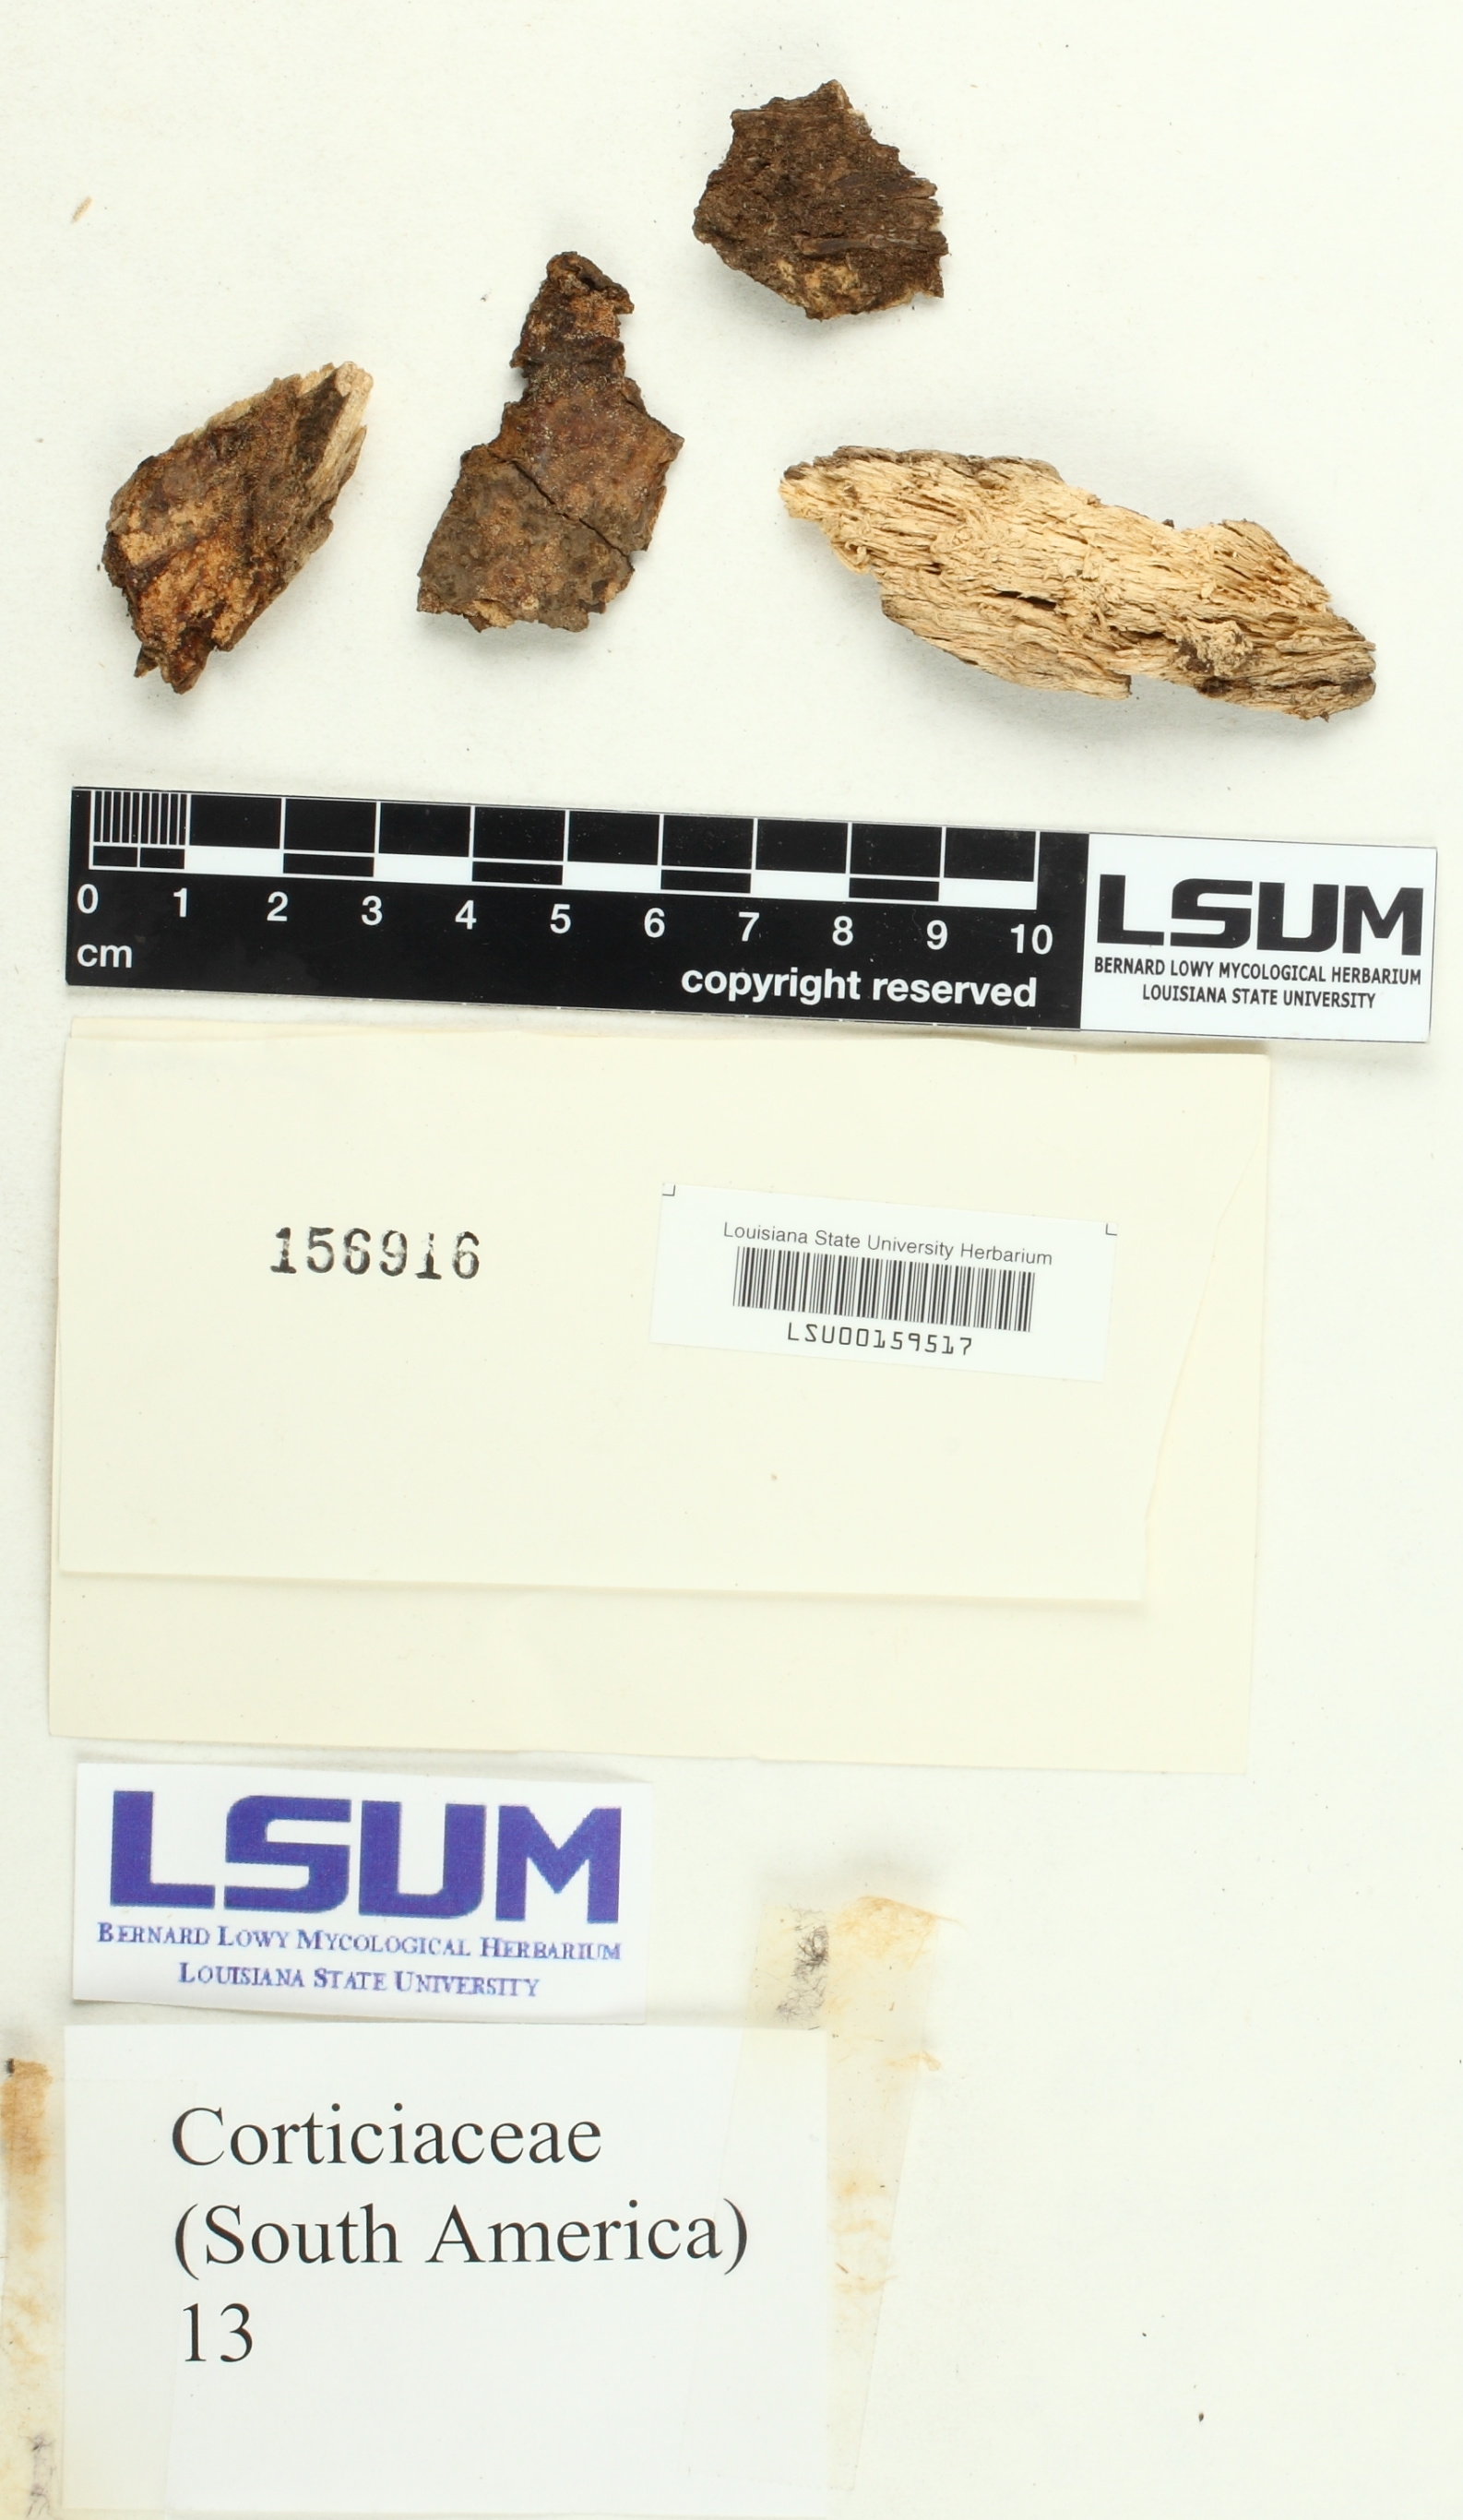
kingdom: Fungi
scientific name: Fungi
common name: Fungi
